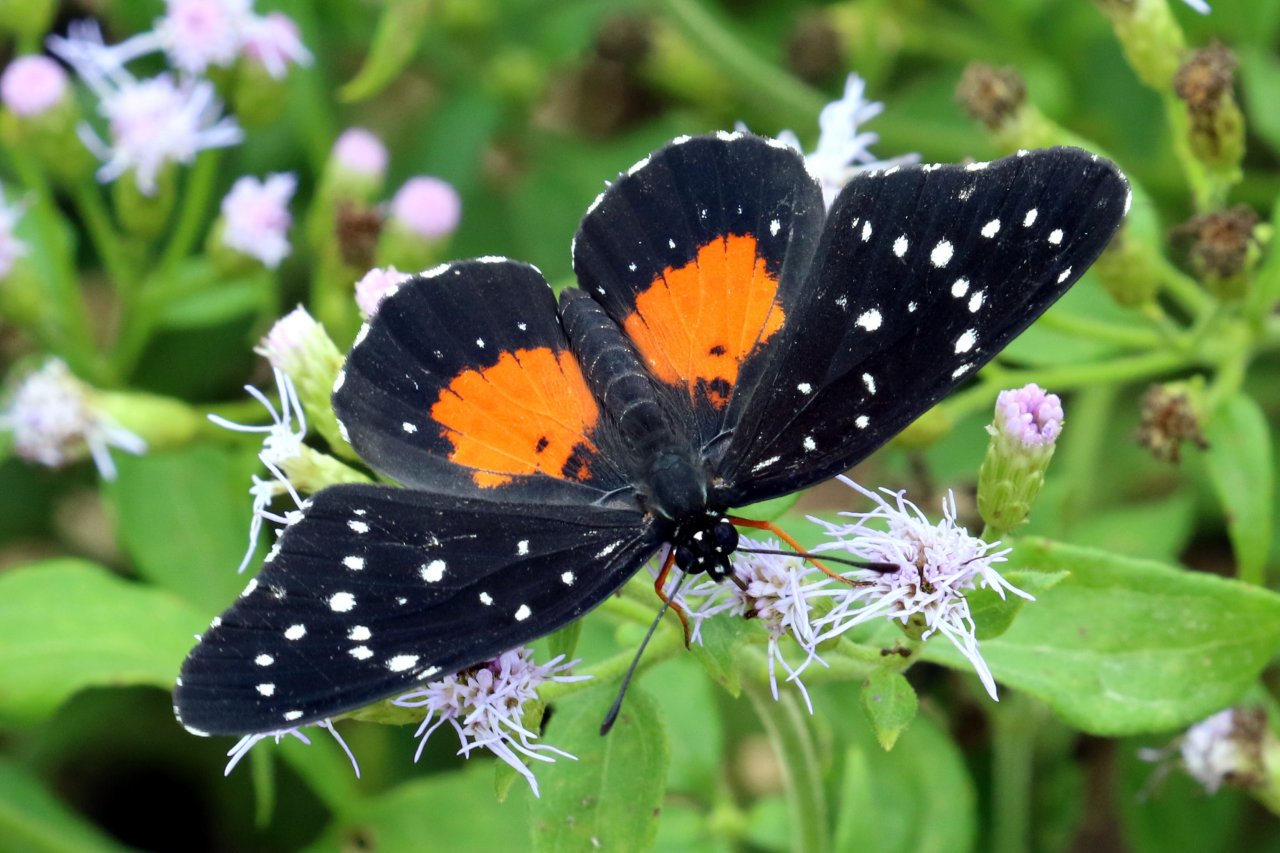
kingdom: Animalia
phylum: Arthropoda
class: Insecta
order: Lepidoptera
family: Nymphalidae
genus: Chlosyne
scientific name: Chlosyne janais
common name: Crimson Patch
